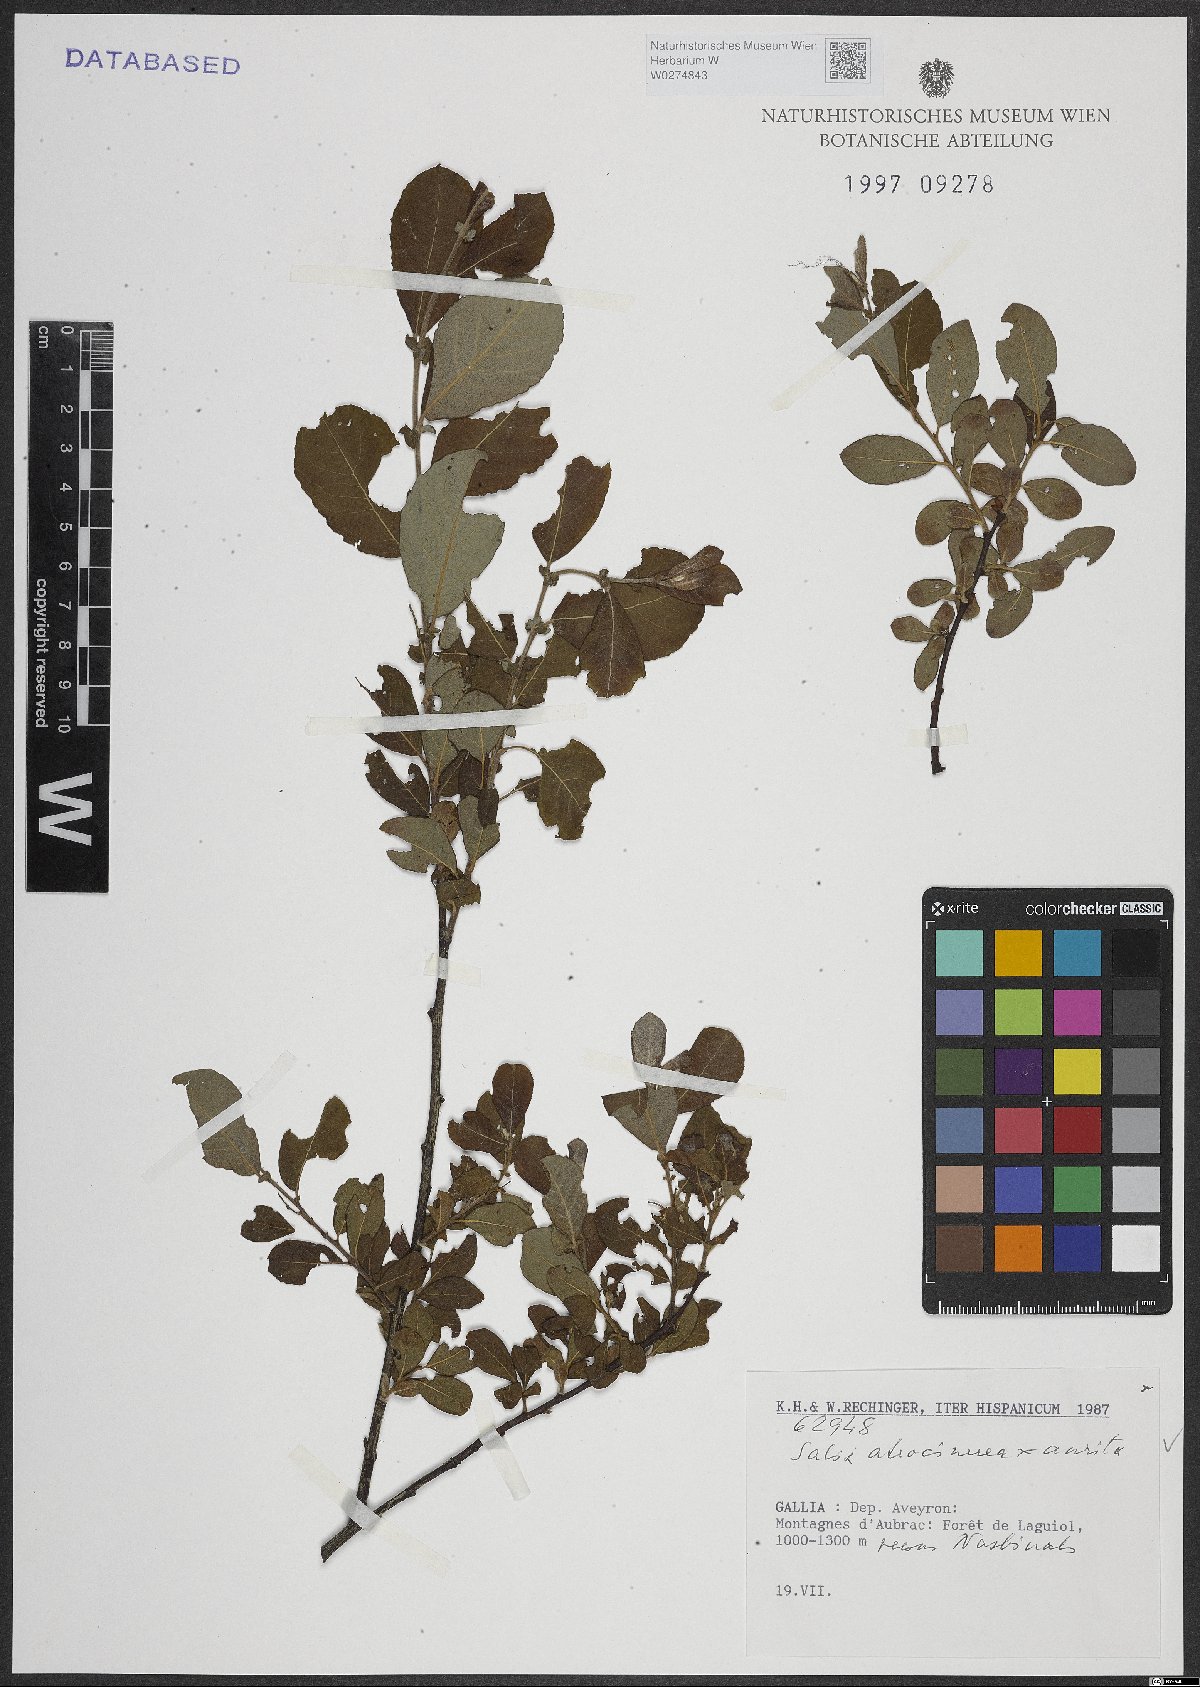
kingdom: Plantae
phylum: Tracheophyta
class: Magnoliopsida
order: Malpighiales
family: Salicaceae
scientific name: Salicaceae
